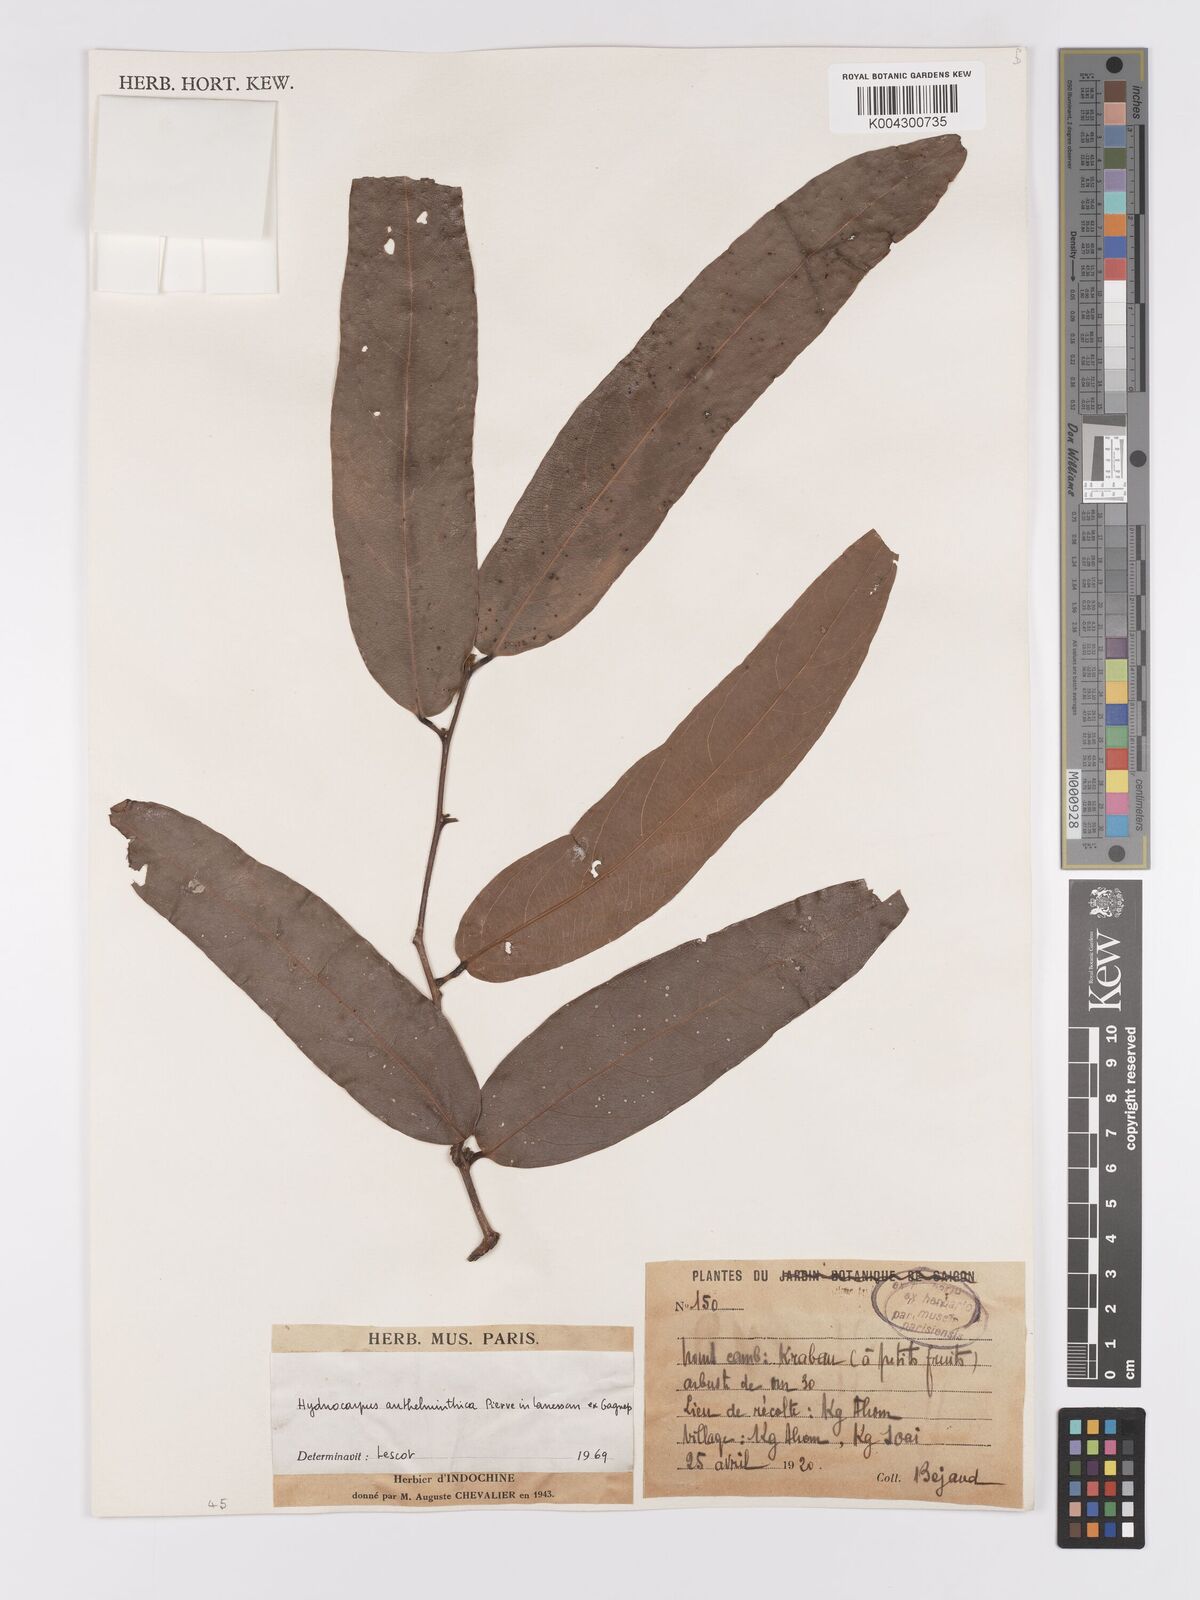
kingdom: Plantae
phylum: Tracheophyta
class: Magnoliopsida
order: Malpighiales
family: Achariaceae
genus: Hydnocarpus
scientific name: Hydnocarpus
